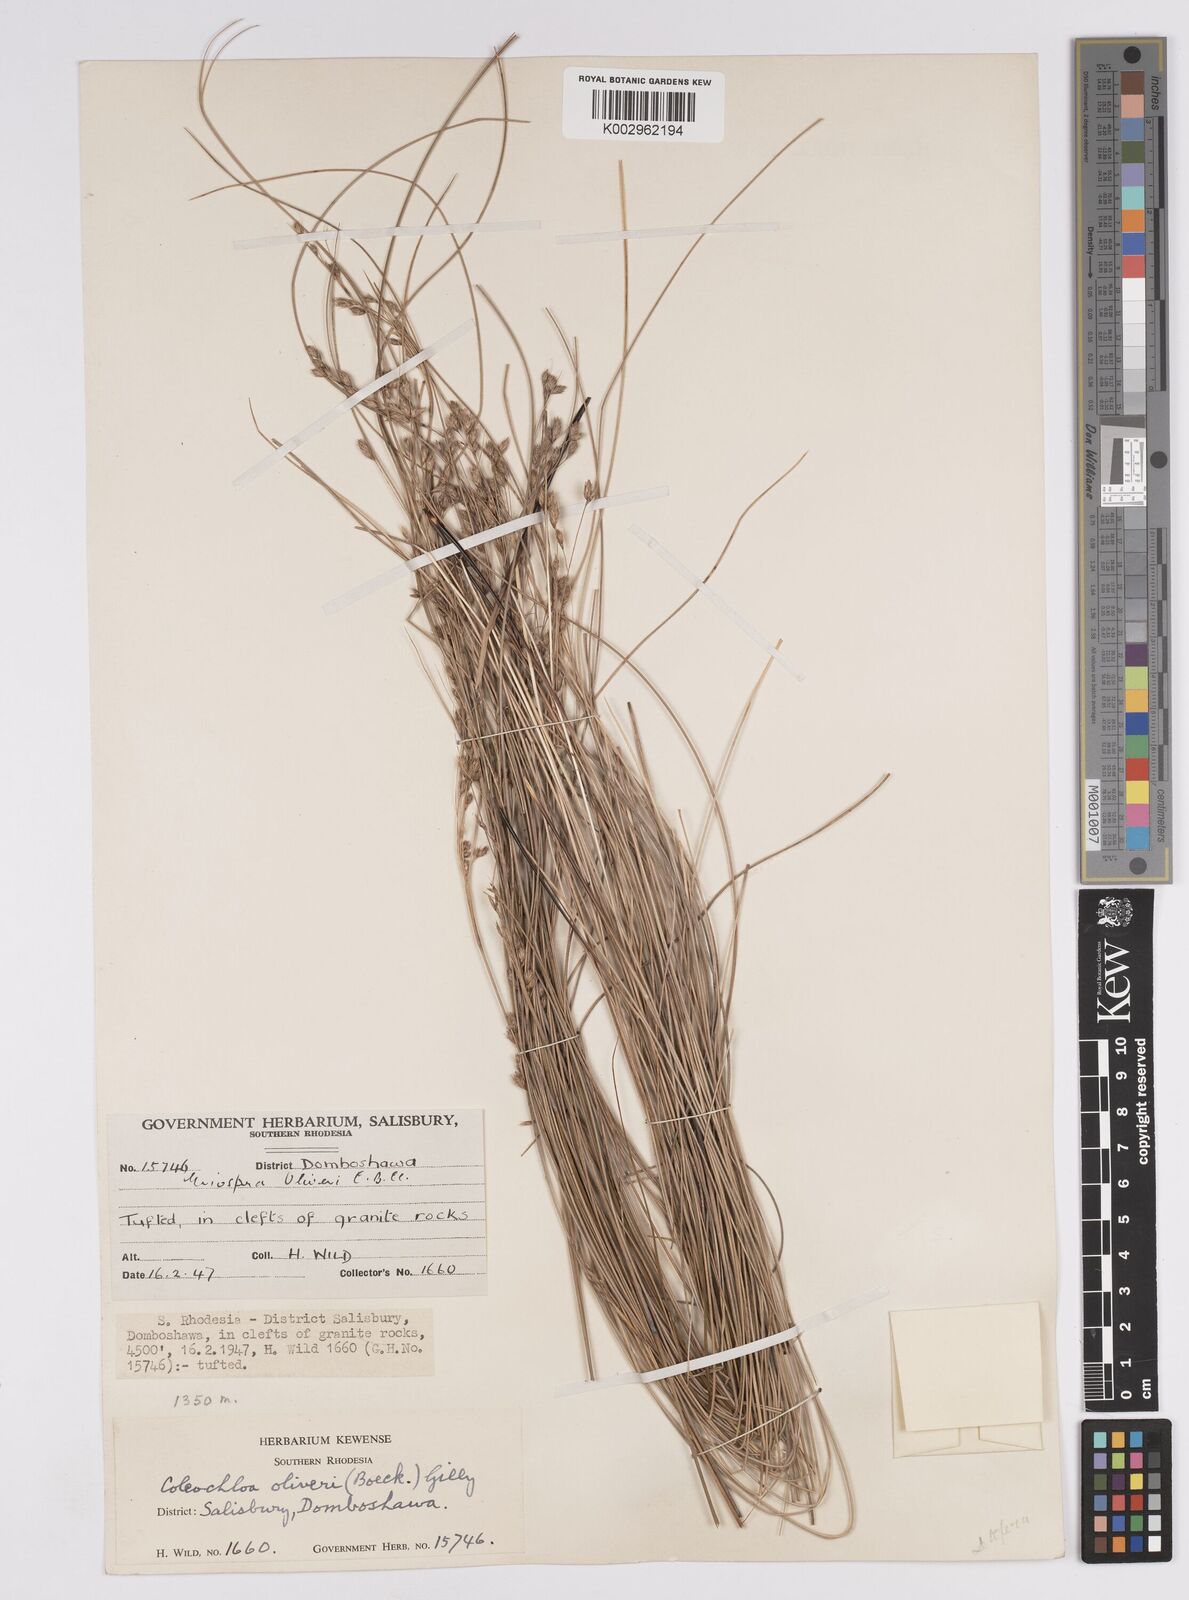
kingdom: Plantae
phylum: Tracheophyta
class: Liliopsida
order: Poales
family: Cyperaceae
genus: Coleochloa
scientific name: Coleochloa setifera
